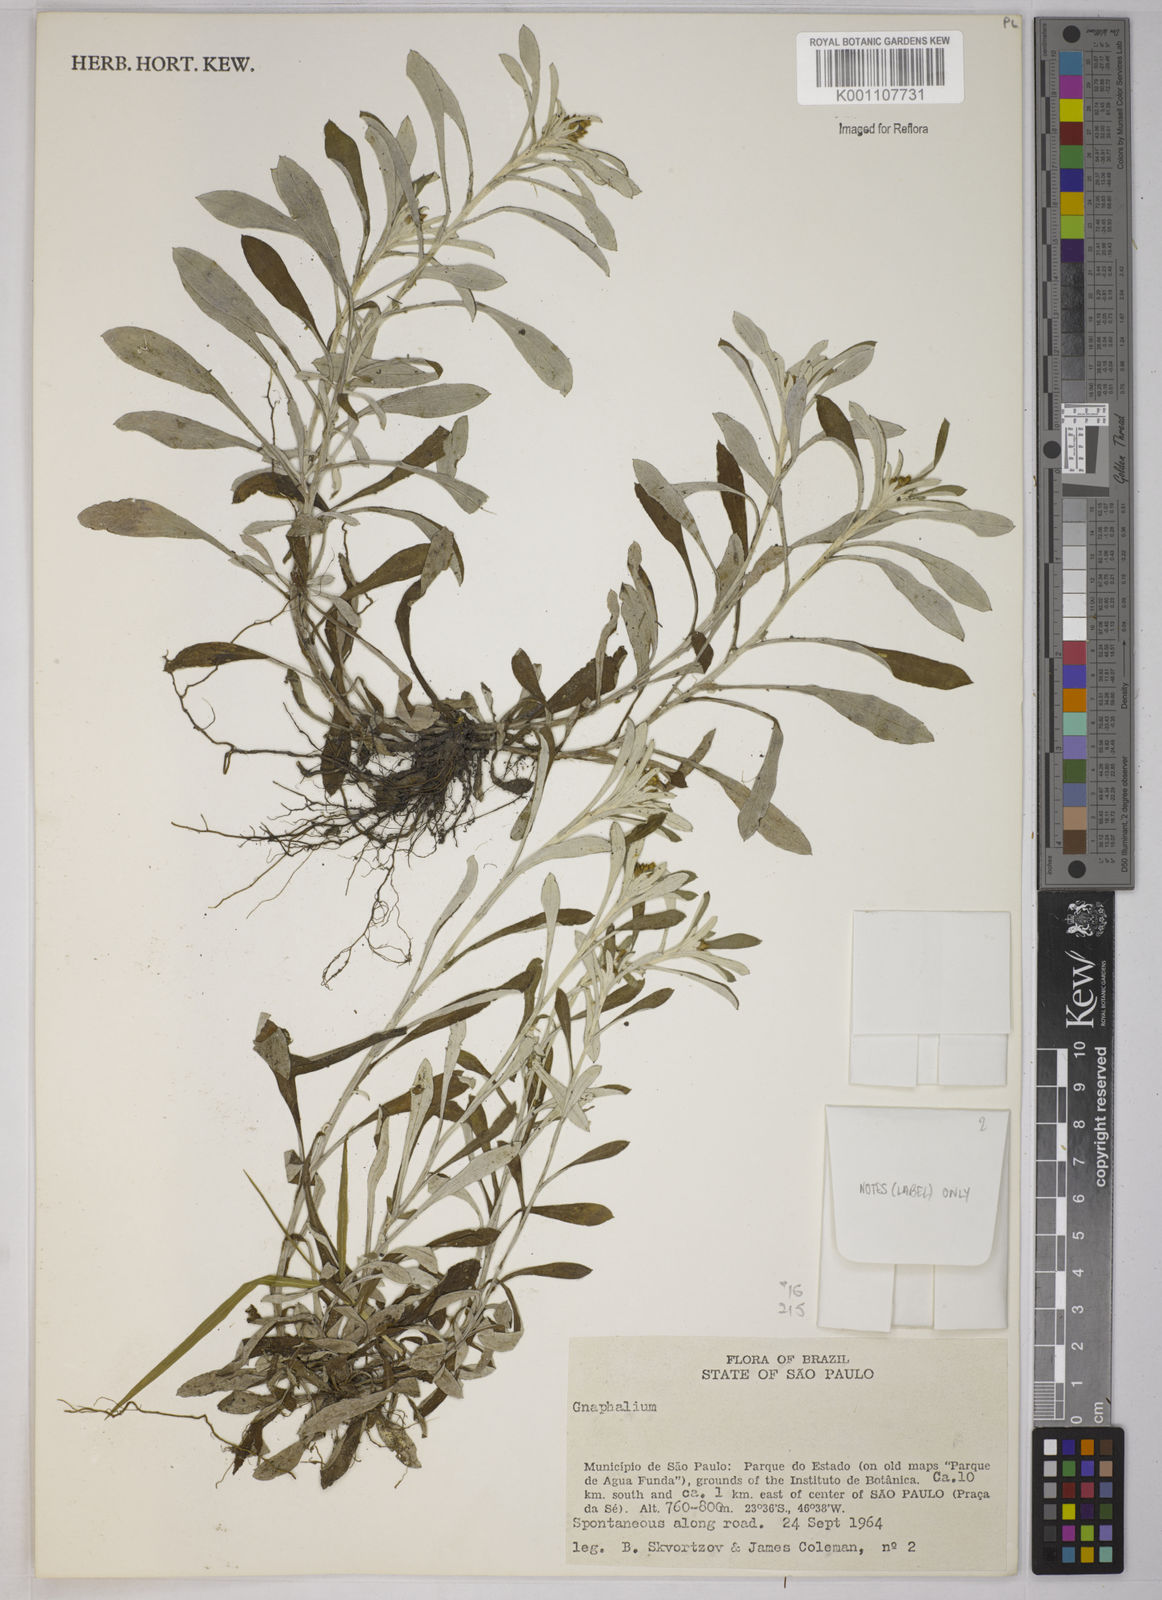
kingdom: Plantae
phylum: Tracheophyta
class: Magnoliopsida
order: Asterales
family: Asteraceae
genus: Gnaphalium
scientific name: Gnaphalium
